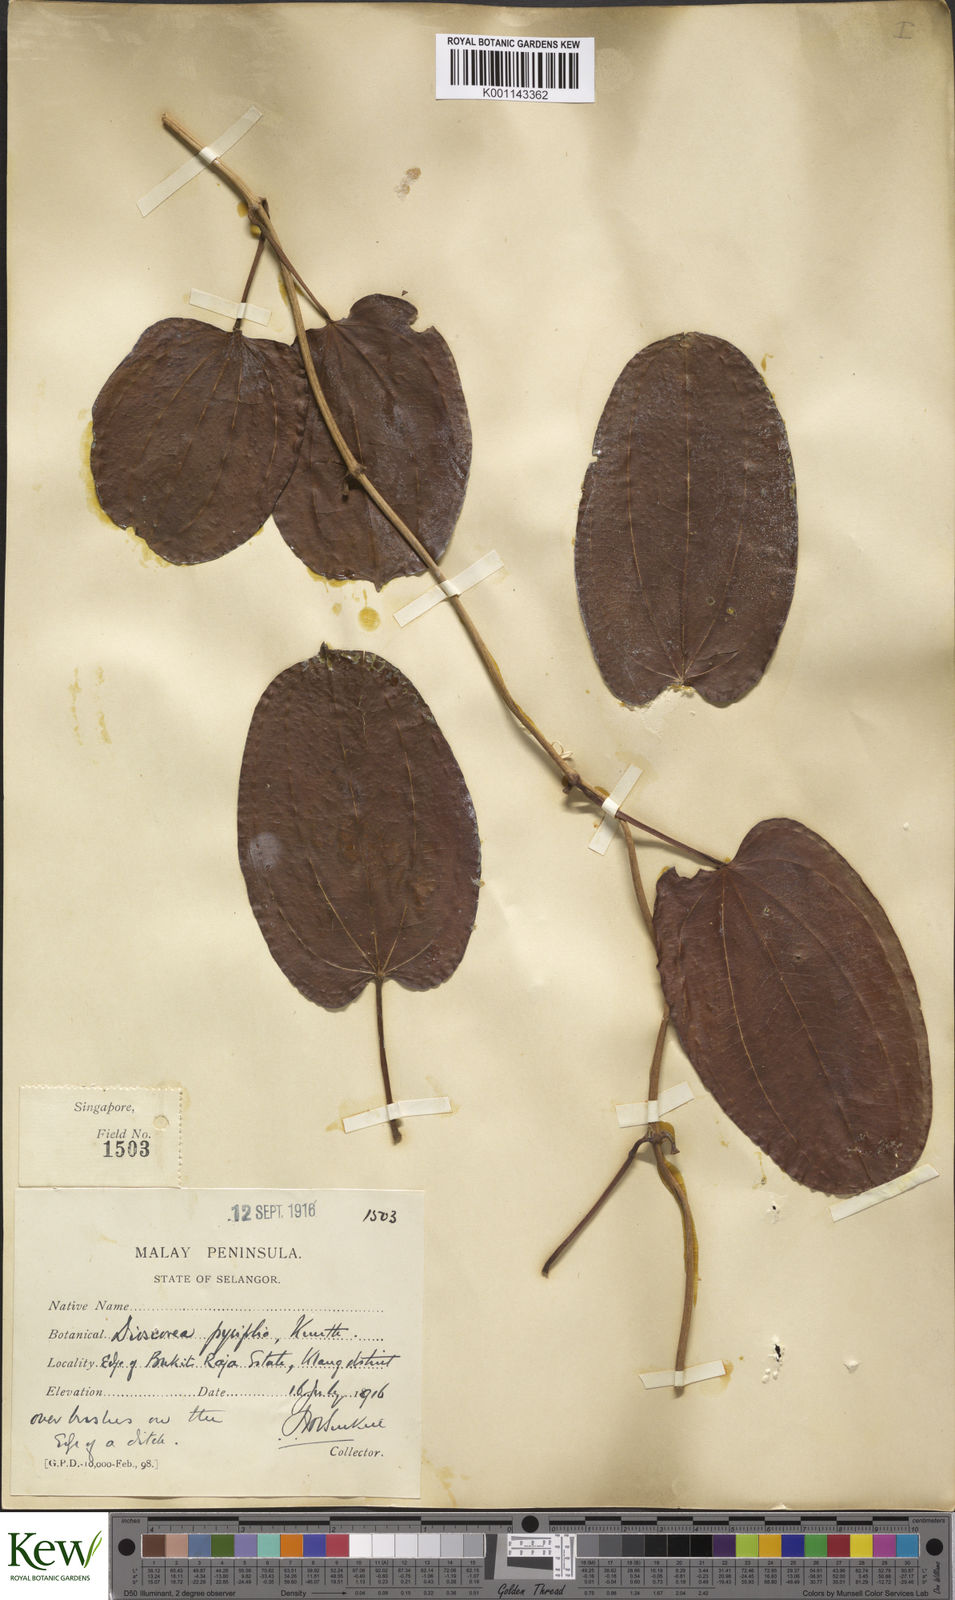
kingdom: Plantae
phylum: Tracheophyta
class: Liliopsida
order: Dioscoreales
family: Dioscoreaceae
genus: Dioscorea
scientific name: Dioscorea pyrifolia
